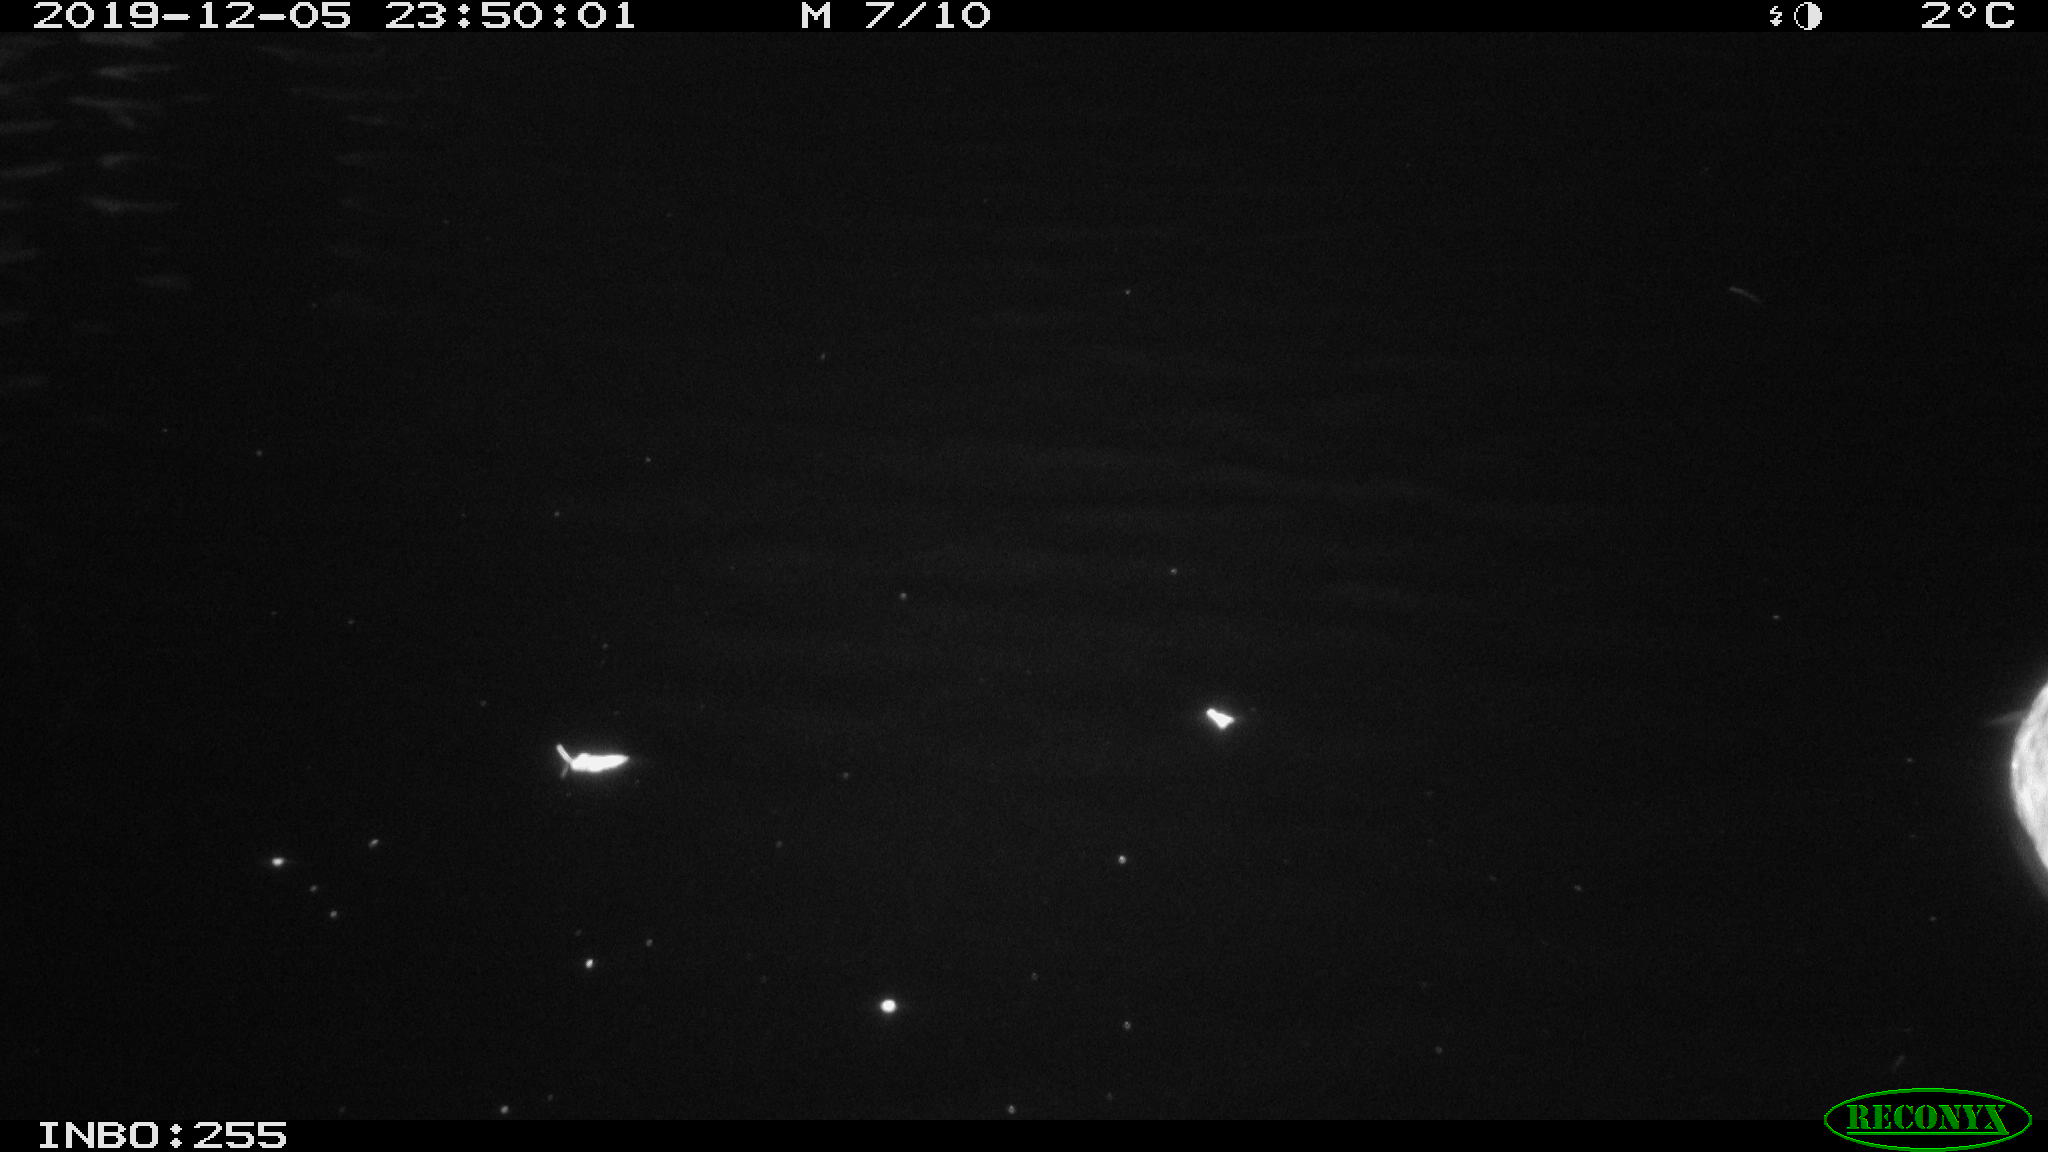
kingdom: Animalia
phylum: Chordata
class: Aves
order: Anseriformes
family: Anatidae
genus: Anas
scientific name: Anas platyrhynchos
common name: Mallard
